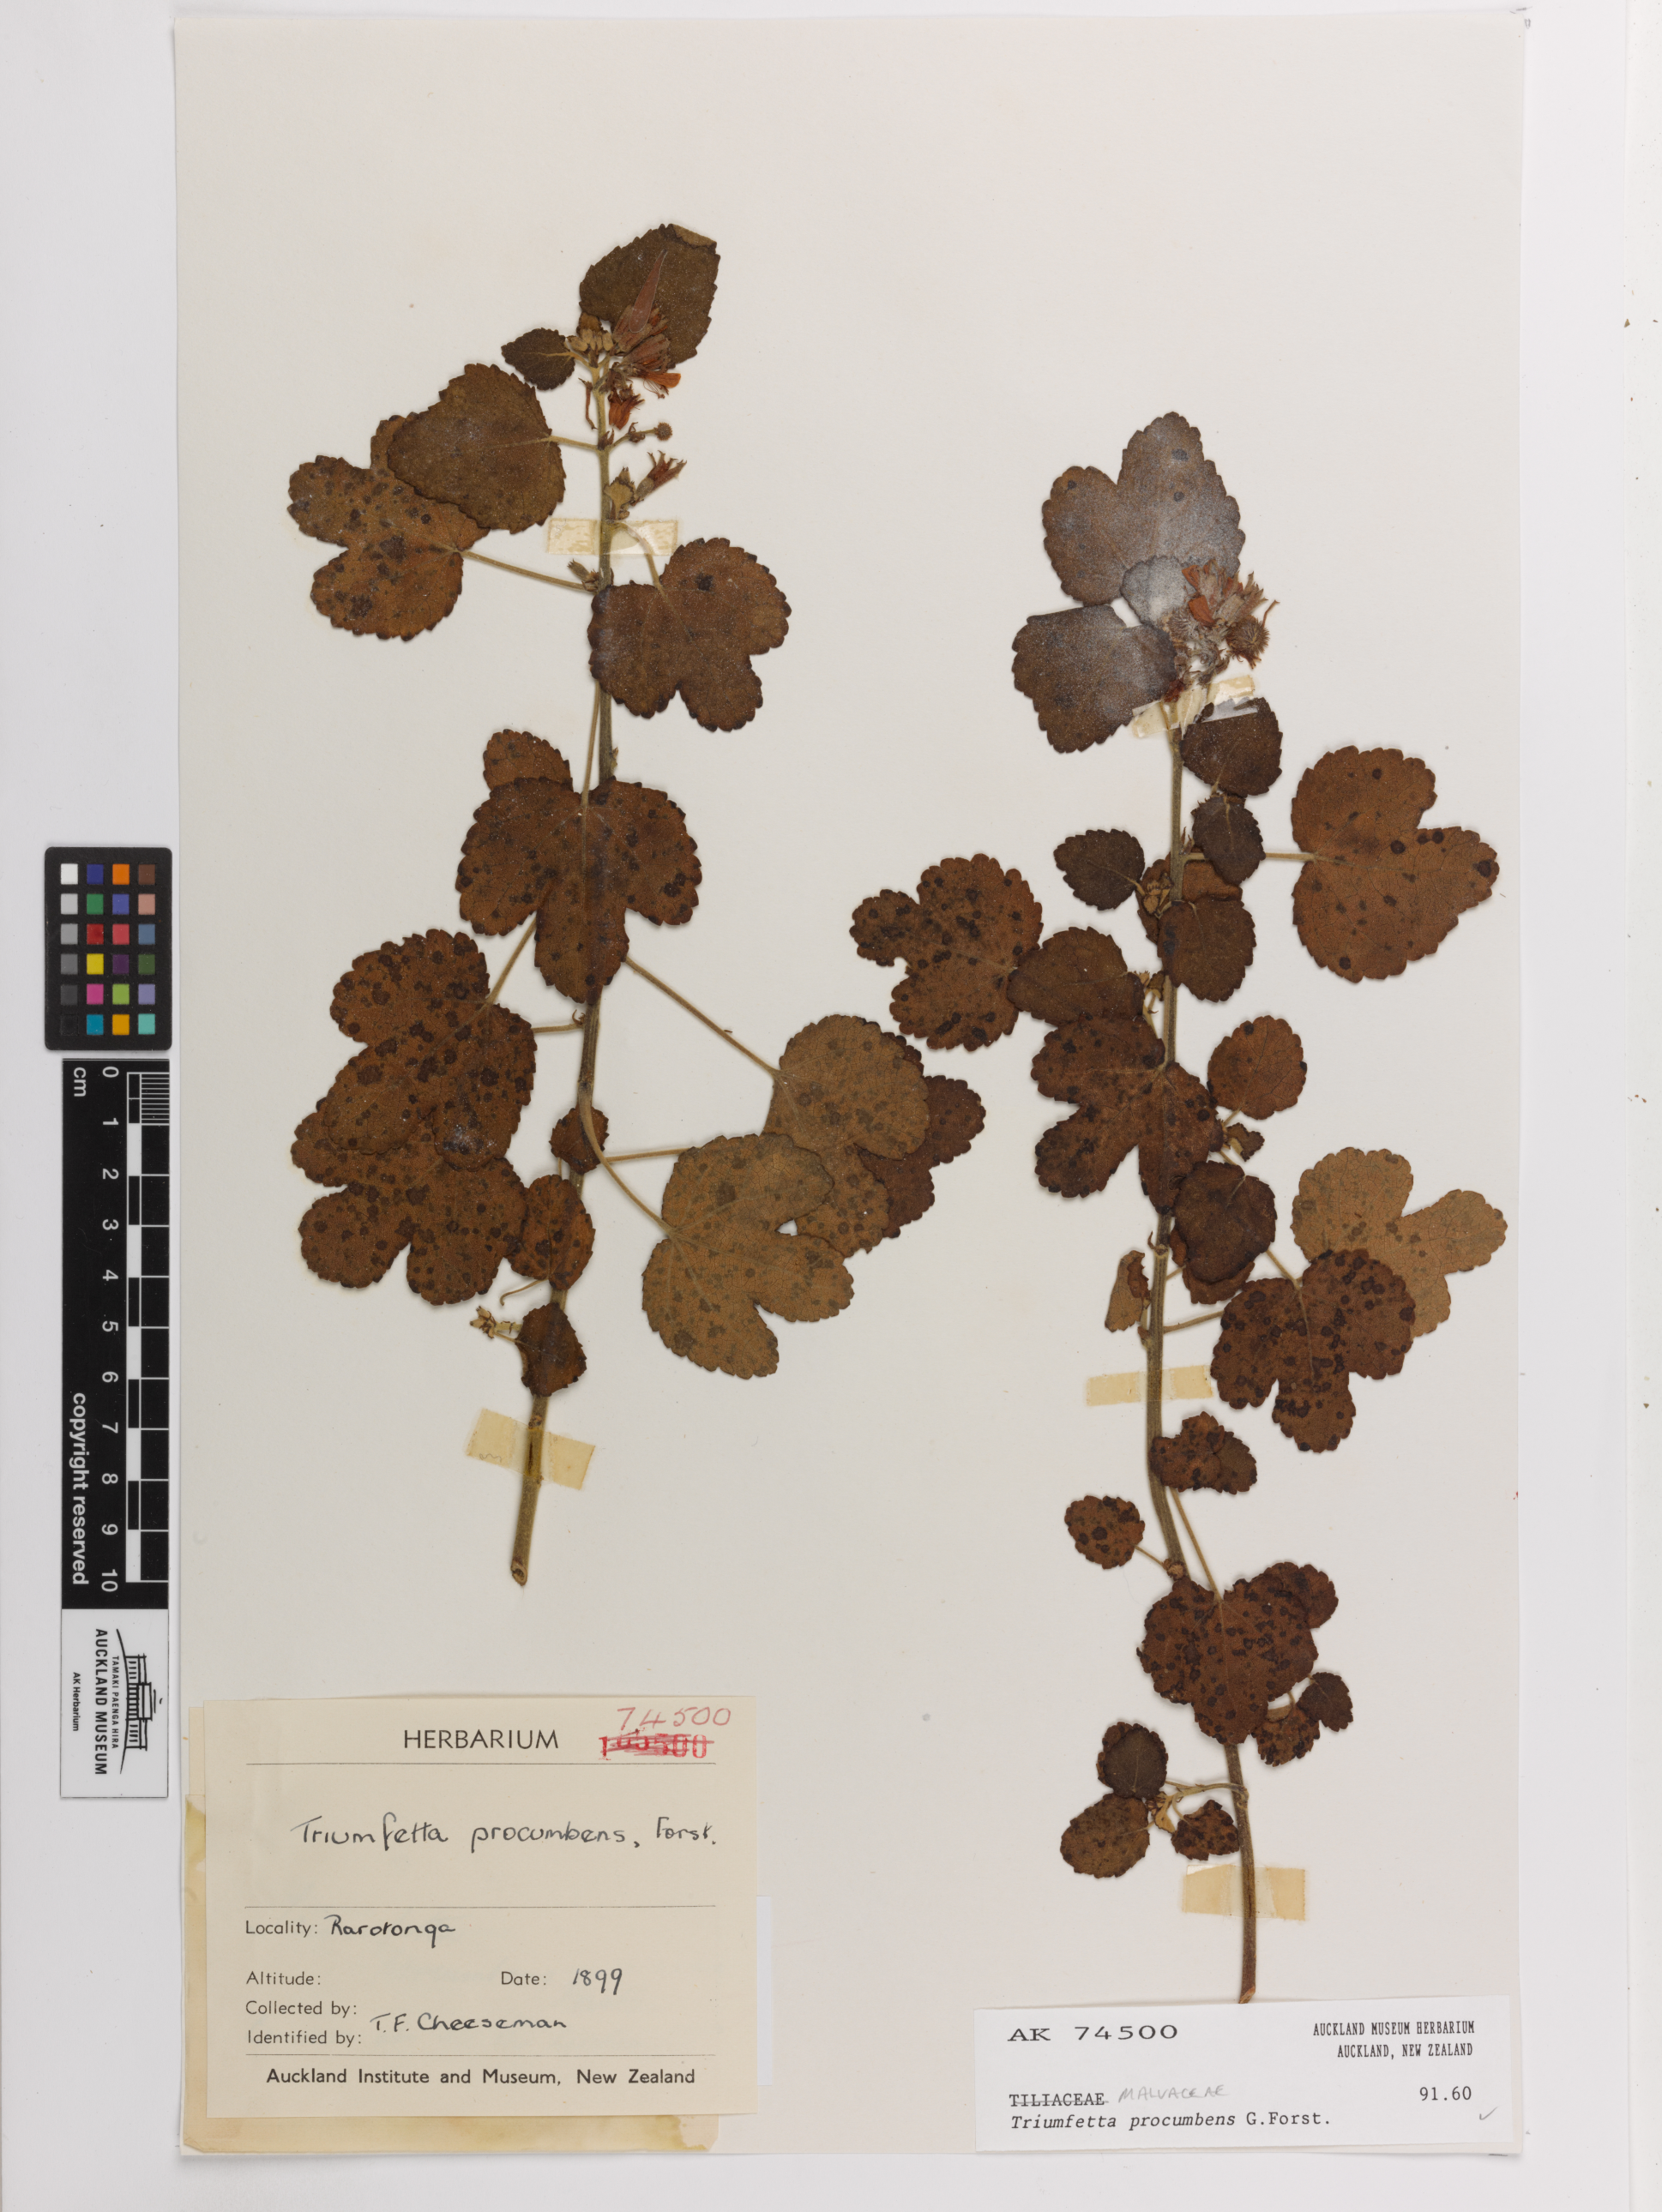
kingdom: Plantae
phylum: Tracheophyta
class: Magnoliopsida
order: Malvales
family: Malvaceae
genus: Triumfetta
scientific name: Triumfetta procumbens
